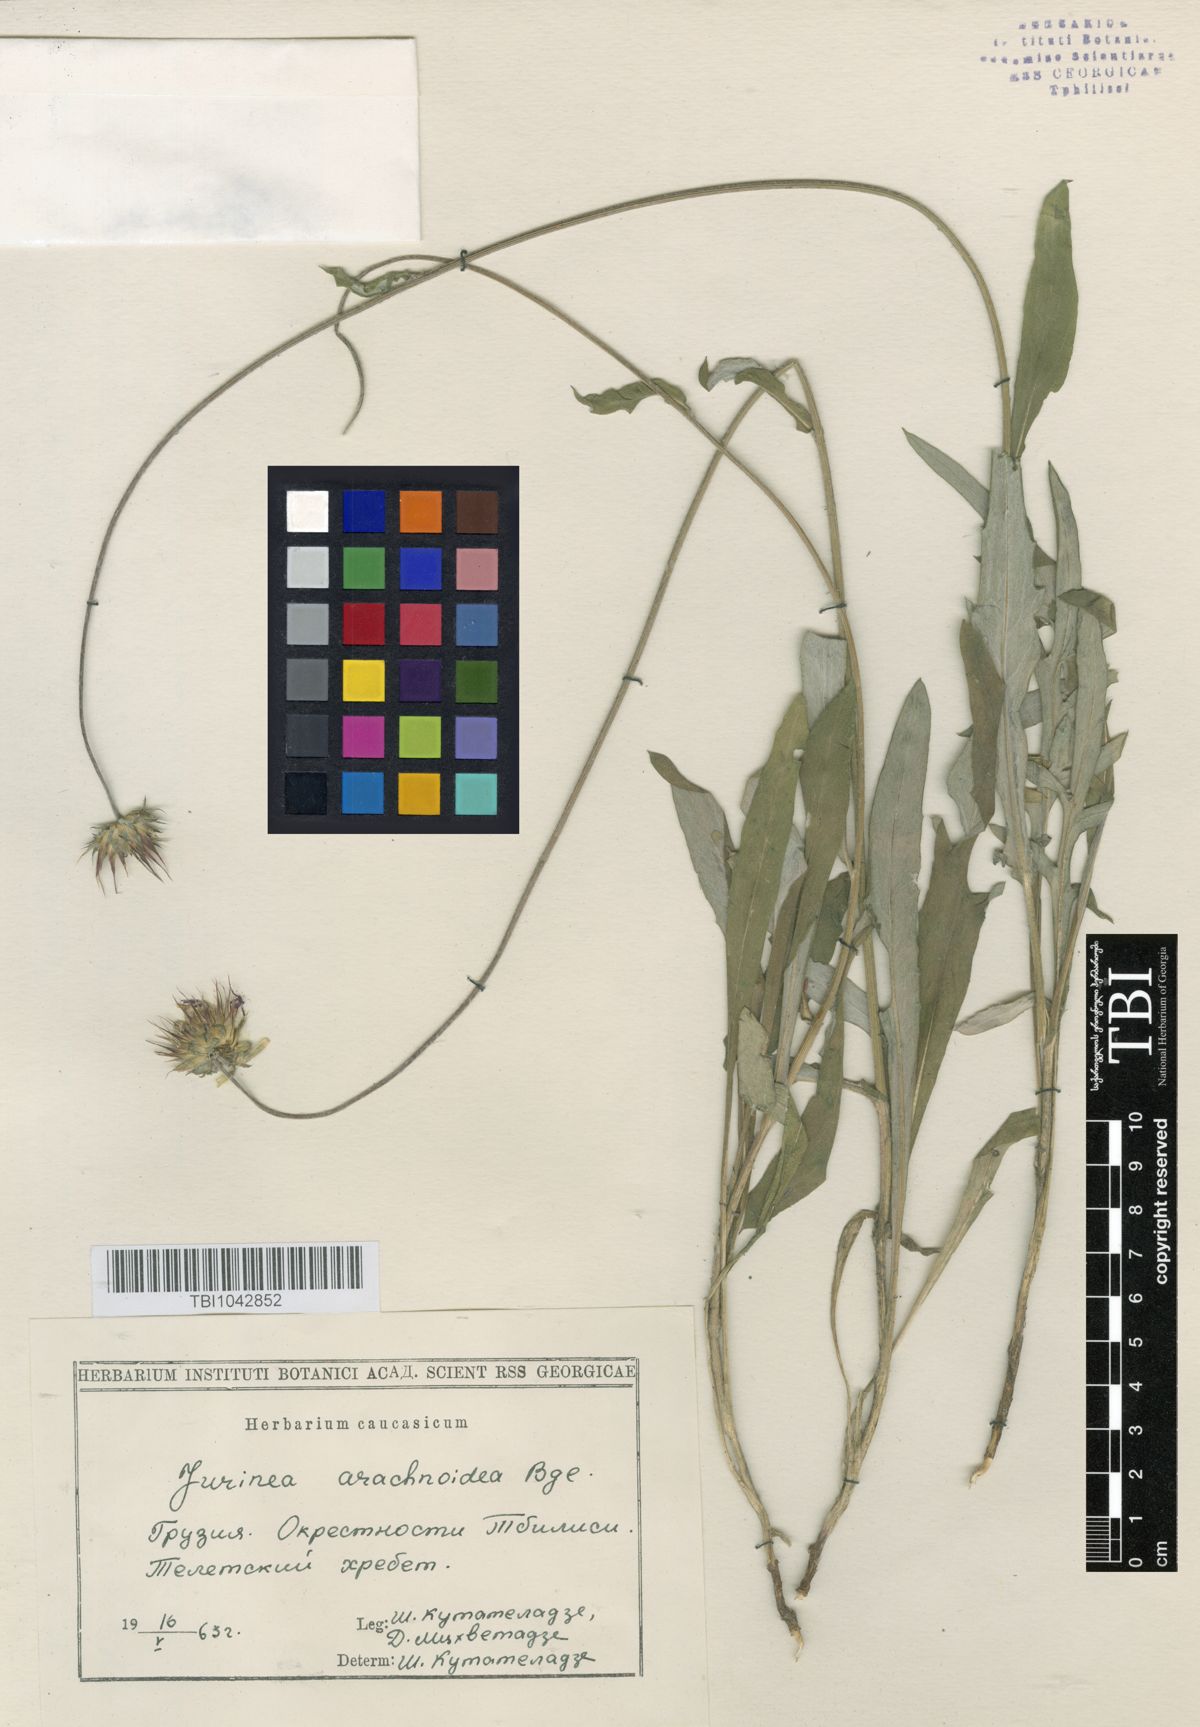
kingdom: Plantae
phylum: Tracheophyta
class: Magnoliopsida
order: Asterales
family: Asteraceae
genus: Jurinea
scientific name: Jurinea blanda
